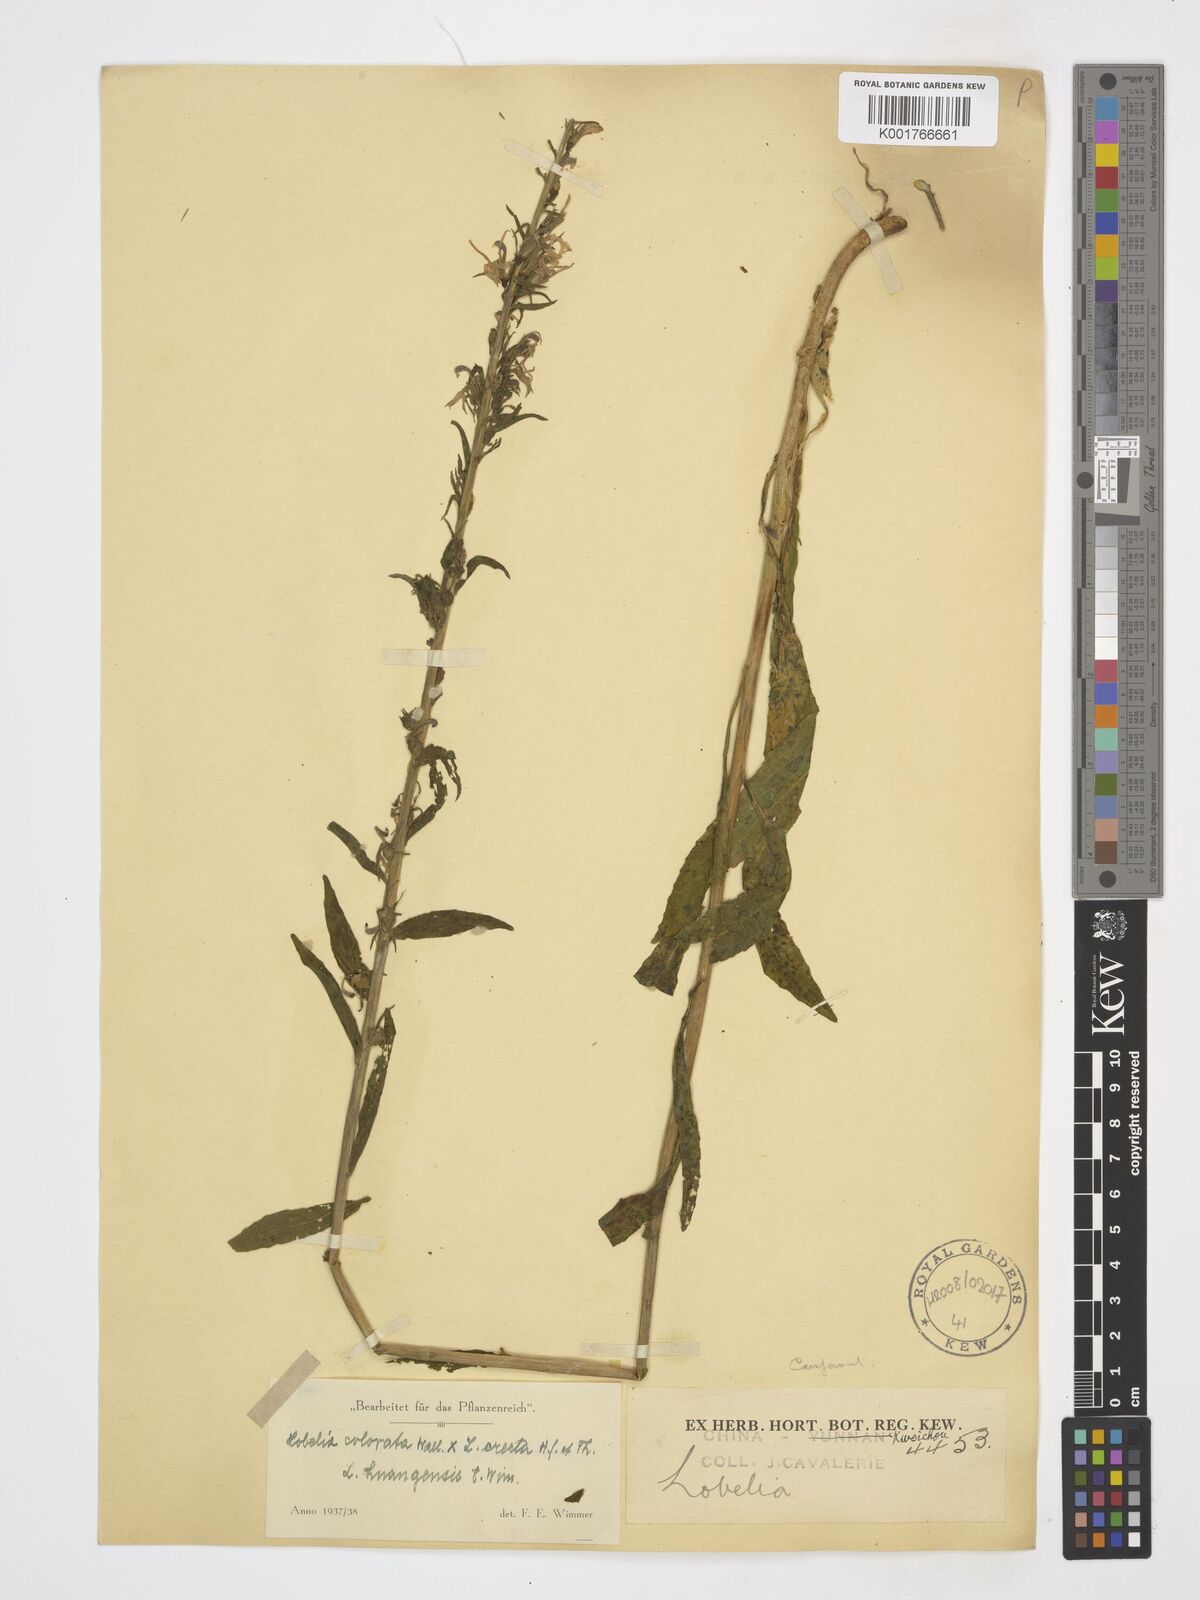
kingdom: Plantae
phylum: Tracheophyta
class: Magnoliopsida
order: Asterales
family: Campanulaceae
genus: Lobelia
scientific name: Lobelia nicotianifolia
